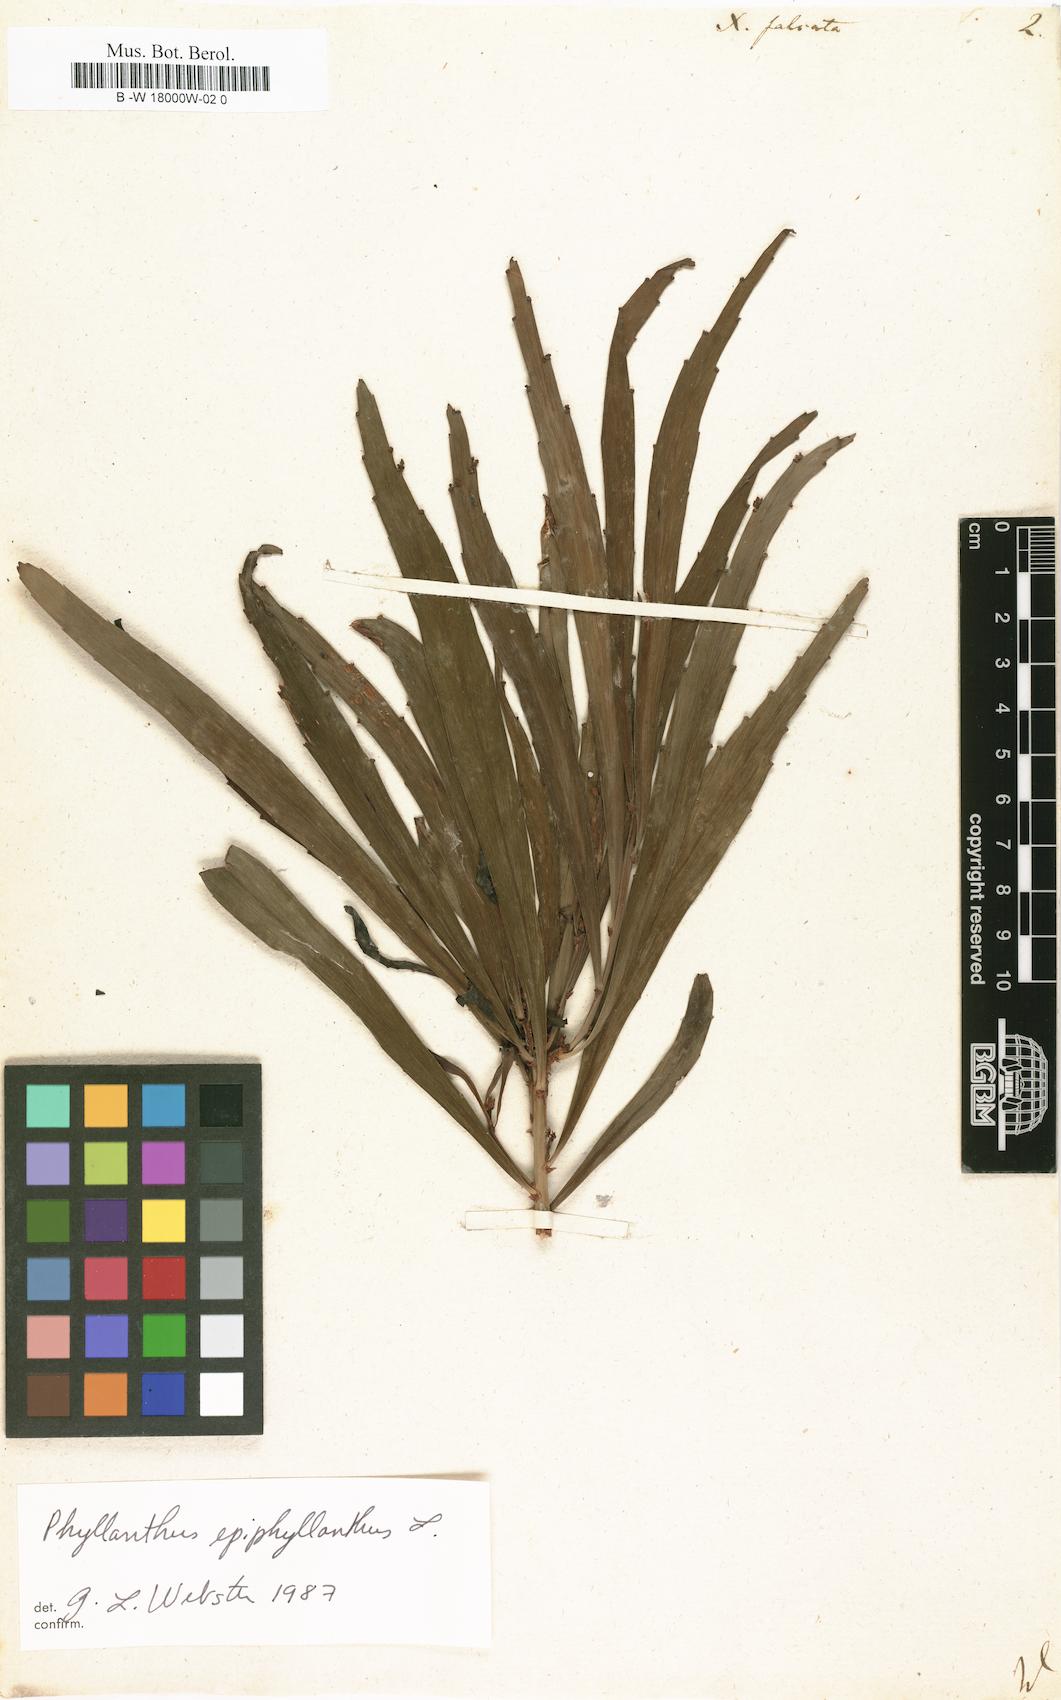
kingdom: Plantae
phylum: Tracheophyta
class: Magnoliopsida
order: Malpighiales
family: Phyllanthaceae
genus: Phyllanthus
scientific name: Phyllanthus epiphyllanthus
